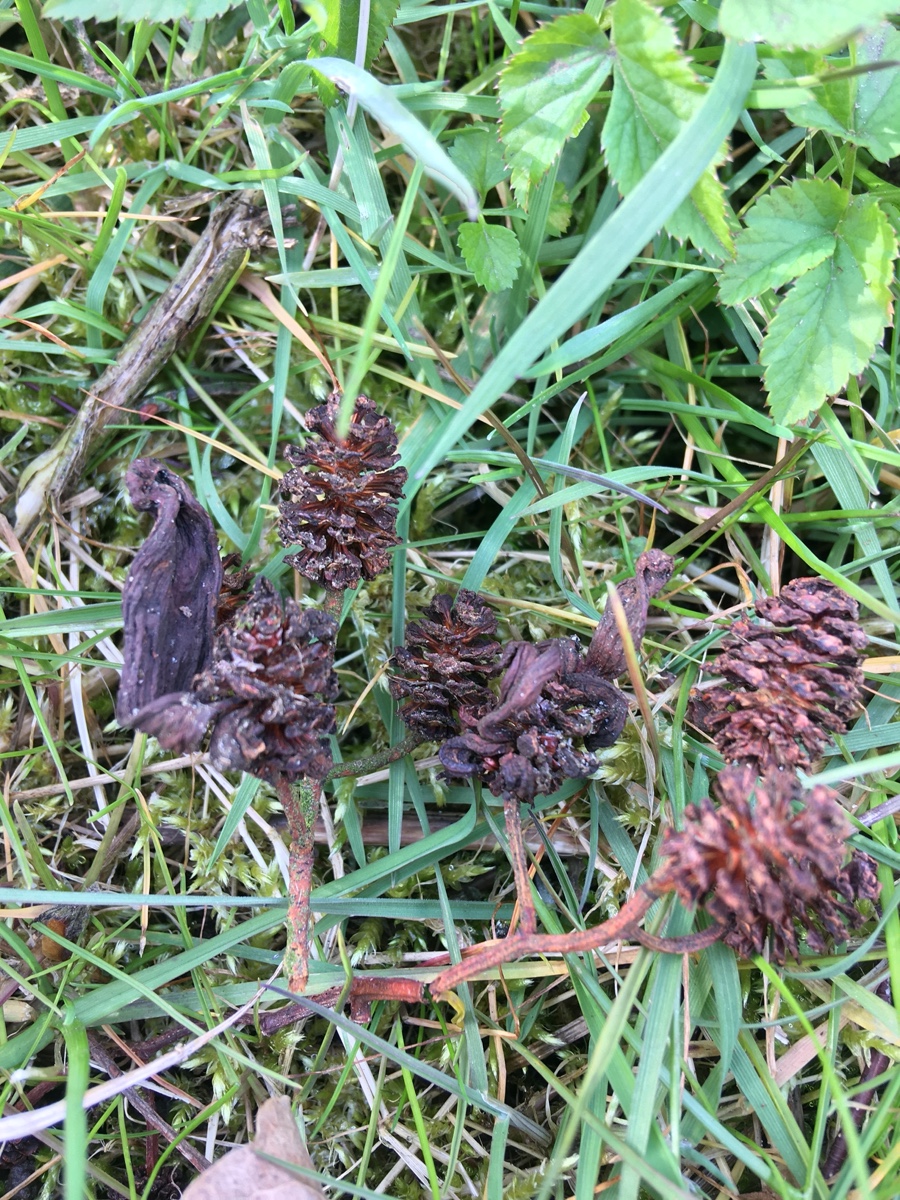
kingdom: Fungi
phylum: Ascomycota
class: Taphrinomycetes
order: Taphrinales
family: Taphrinaceae
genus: Taphrina
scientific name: Taphrina alni
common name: Alder tongue
